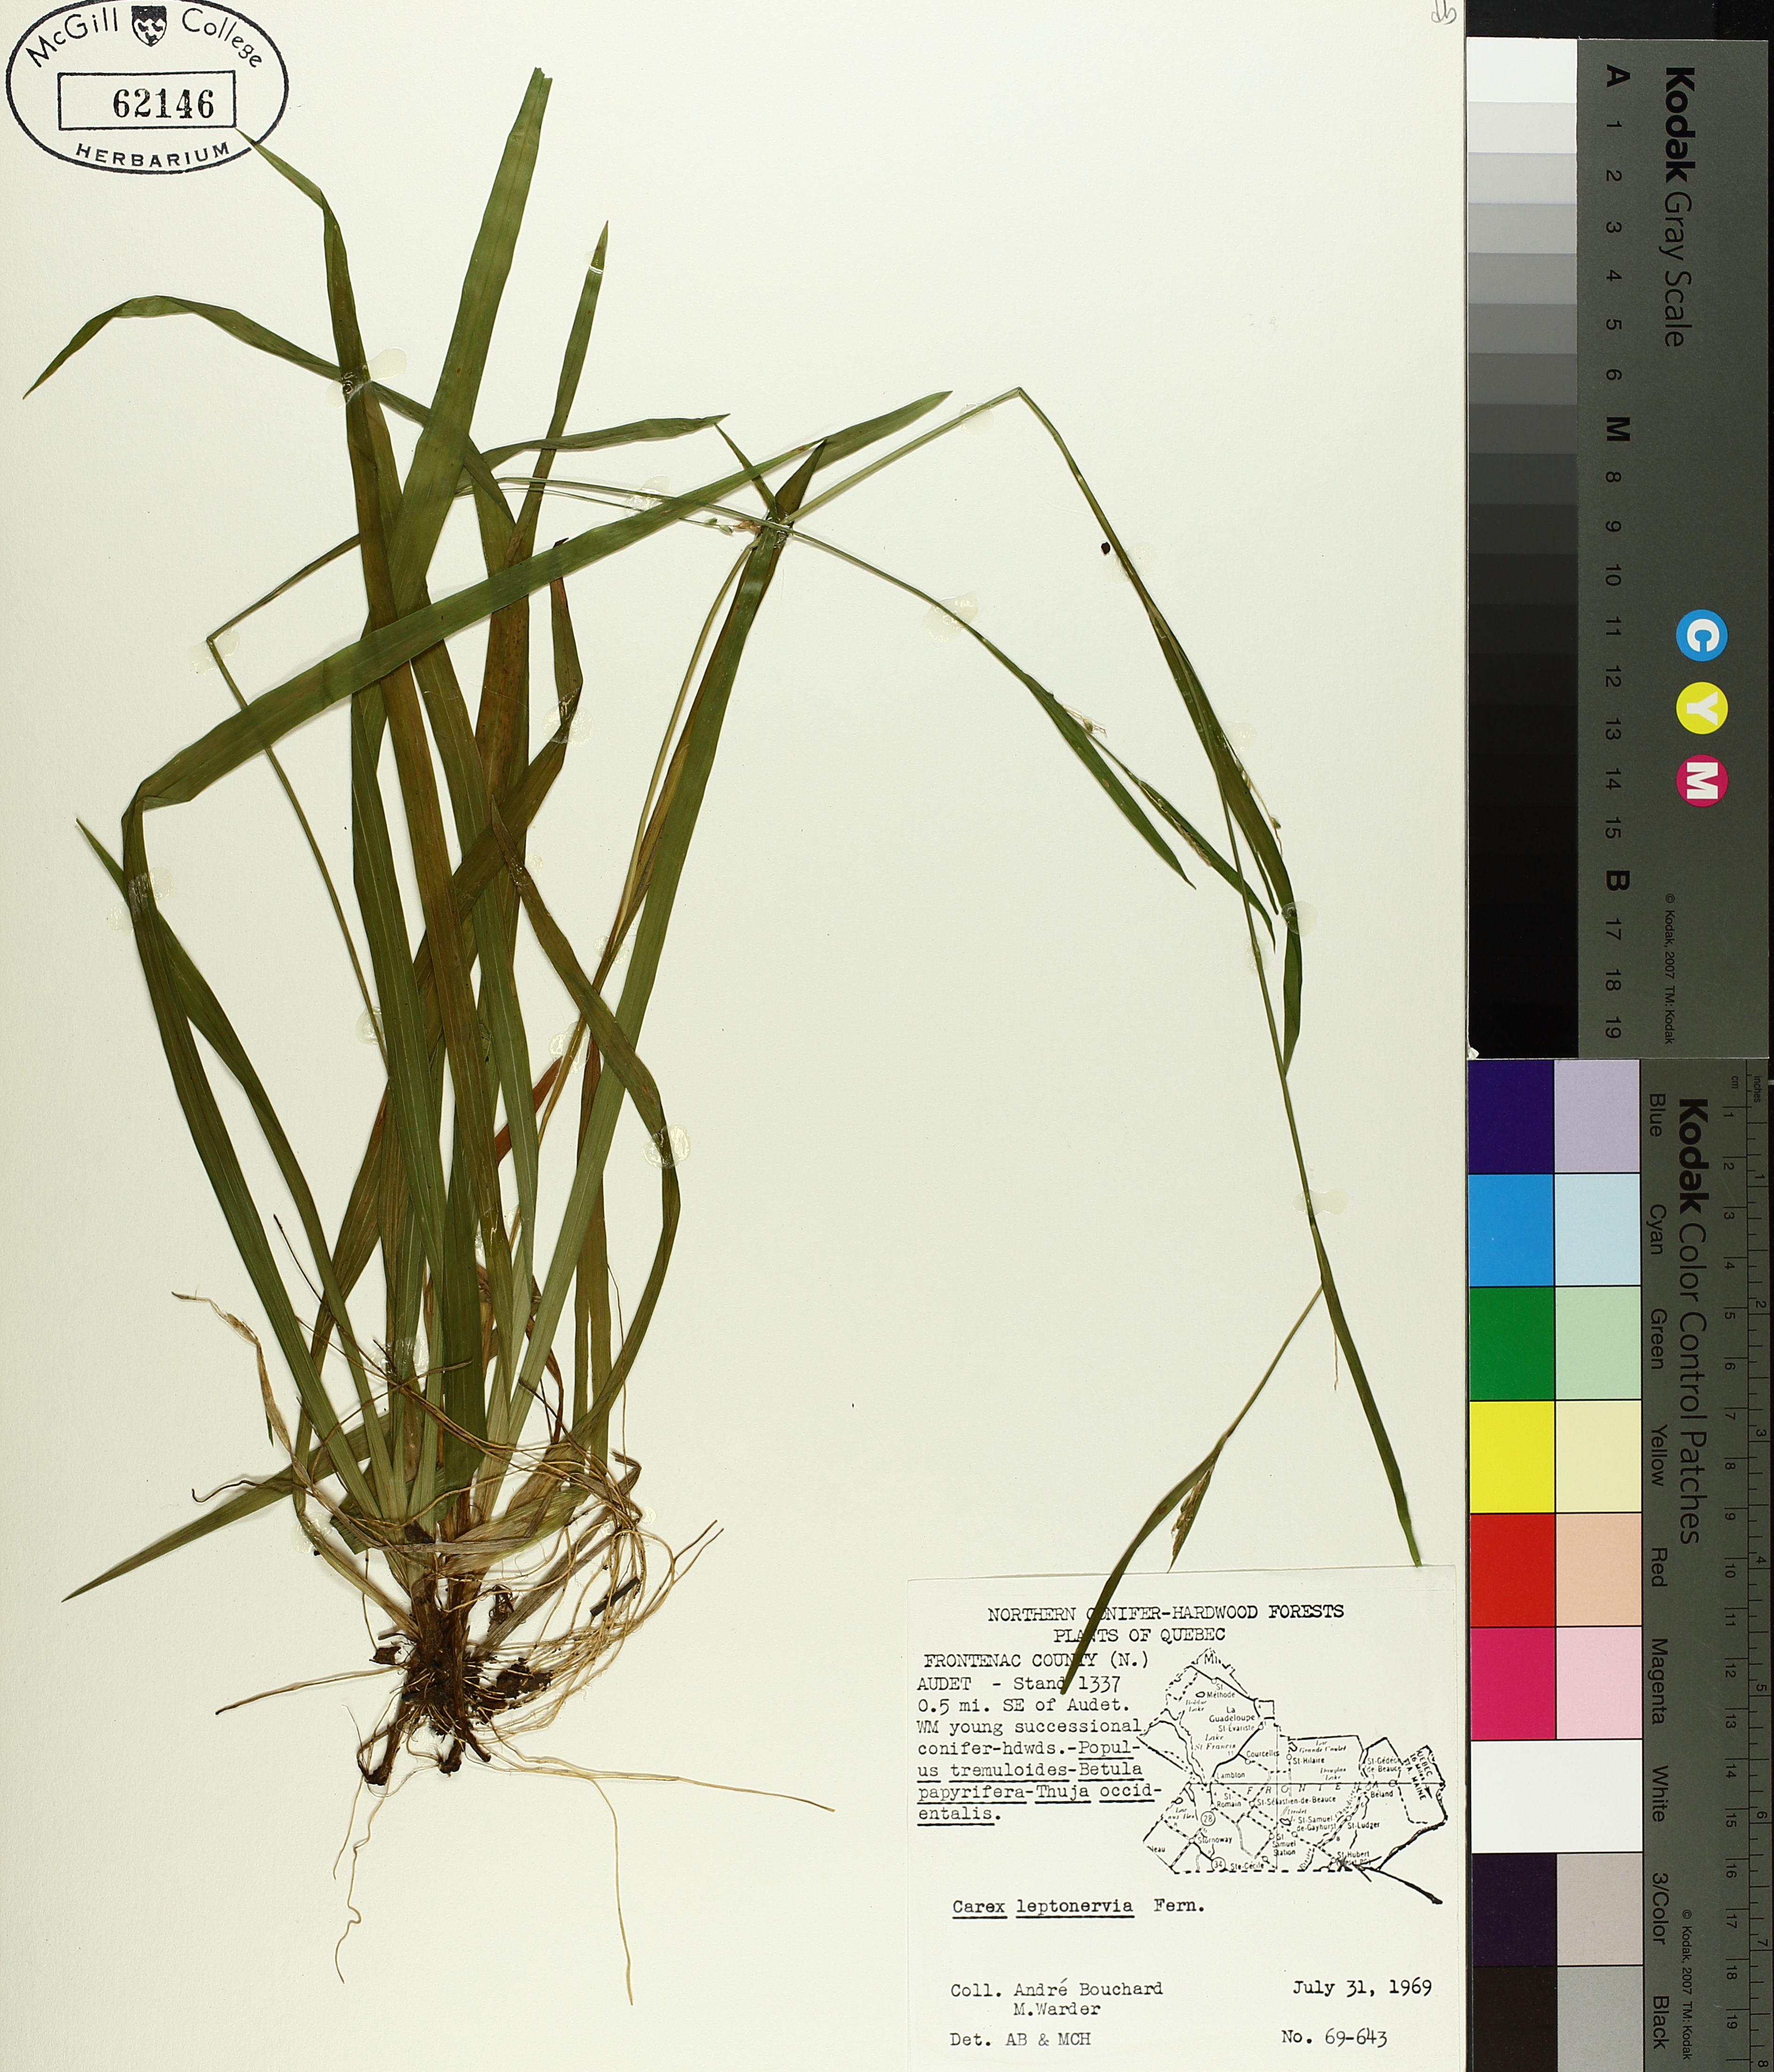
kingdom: Plantae
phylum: Tracheophyta
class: Liliopsida
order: Poales
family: Cyperaceae
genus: Carex
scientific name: Carex leptonervia
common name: Few-nerved wood sedge
